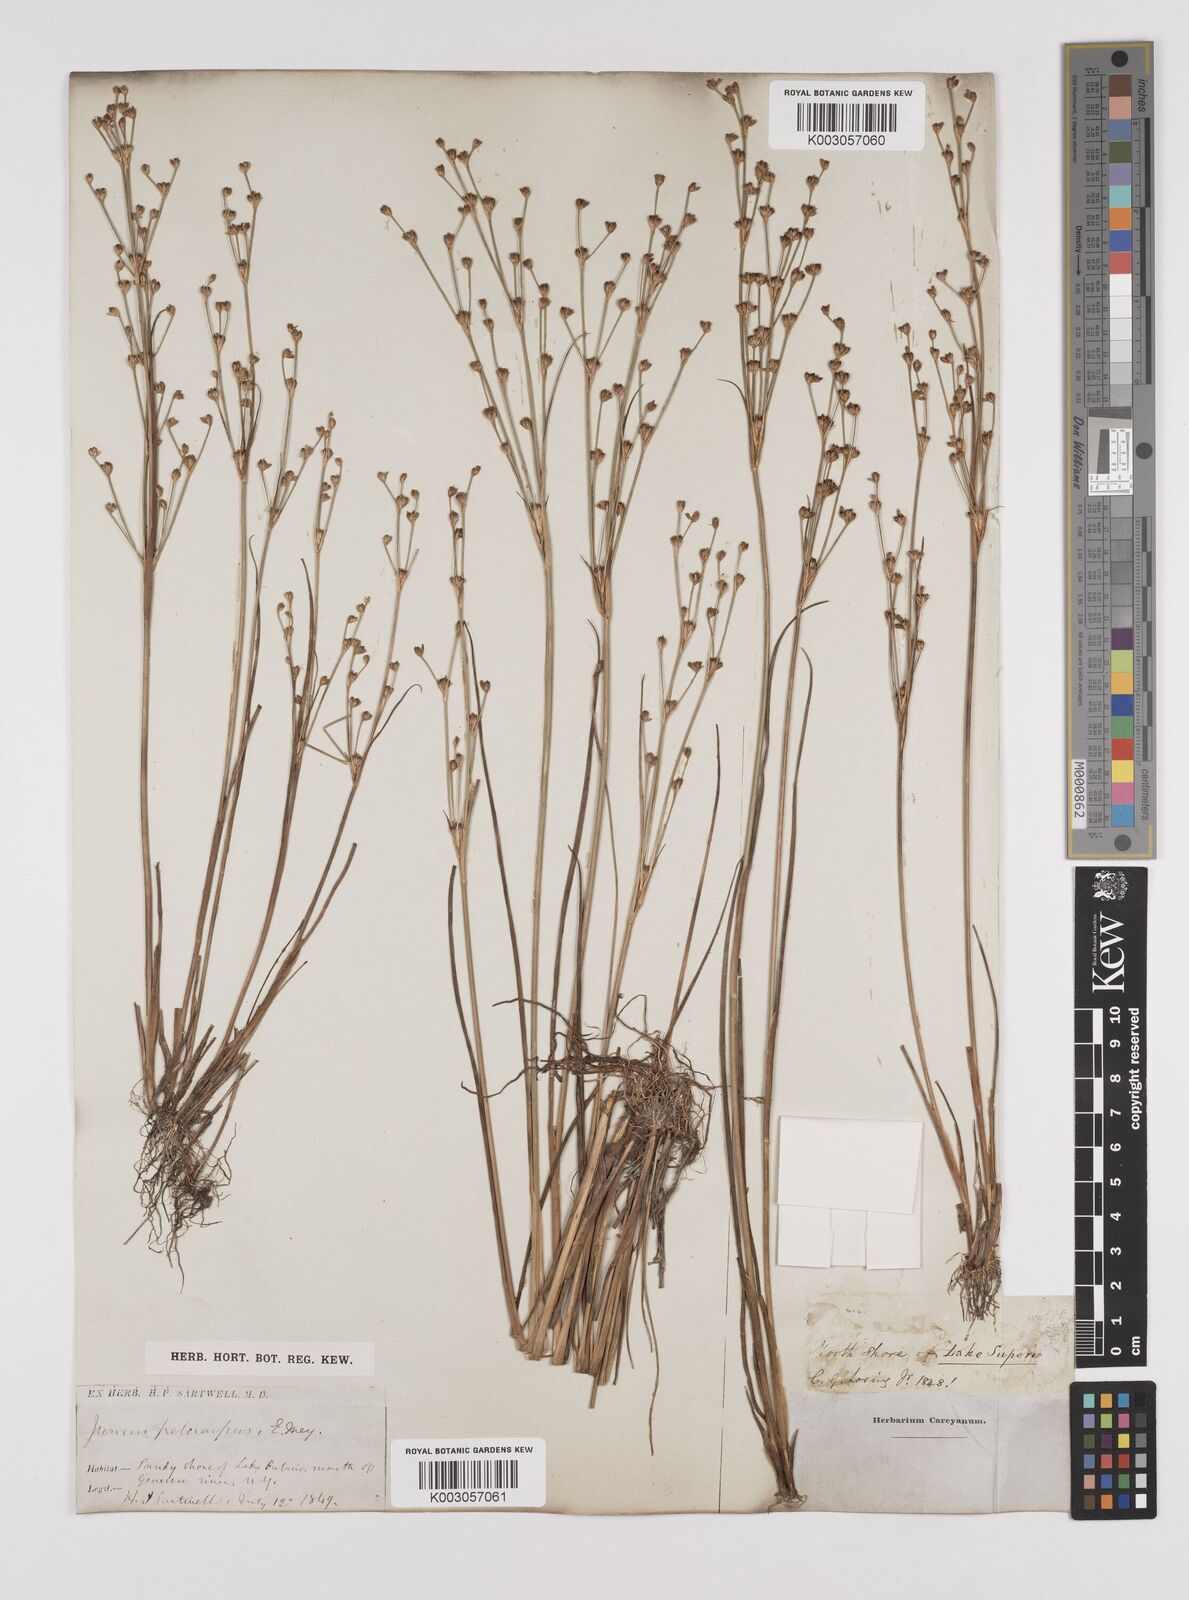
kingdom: Plantae
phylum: Tracheophyta
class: Liliopsida
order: Poales
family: Juncaceae
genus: Juncus
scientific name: Juncus pelocarpus
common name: Brown-fruited rush
